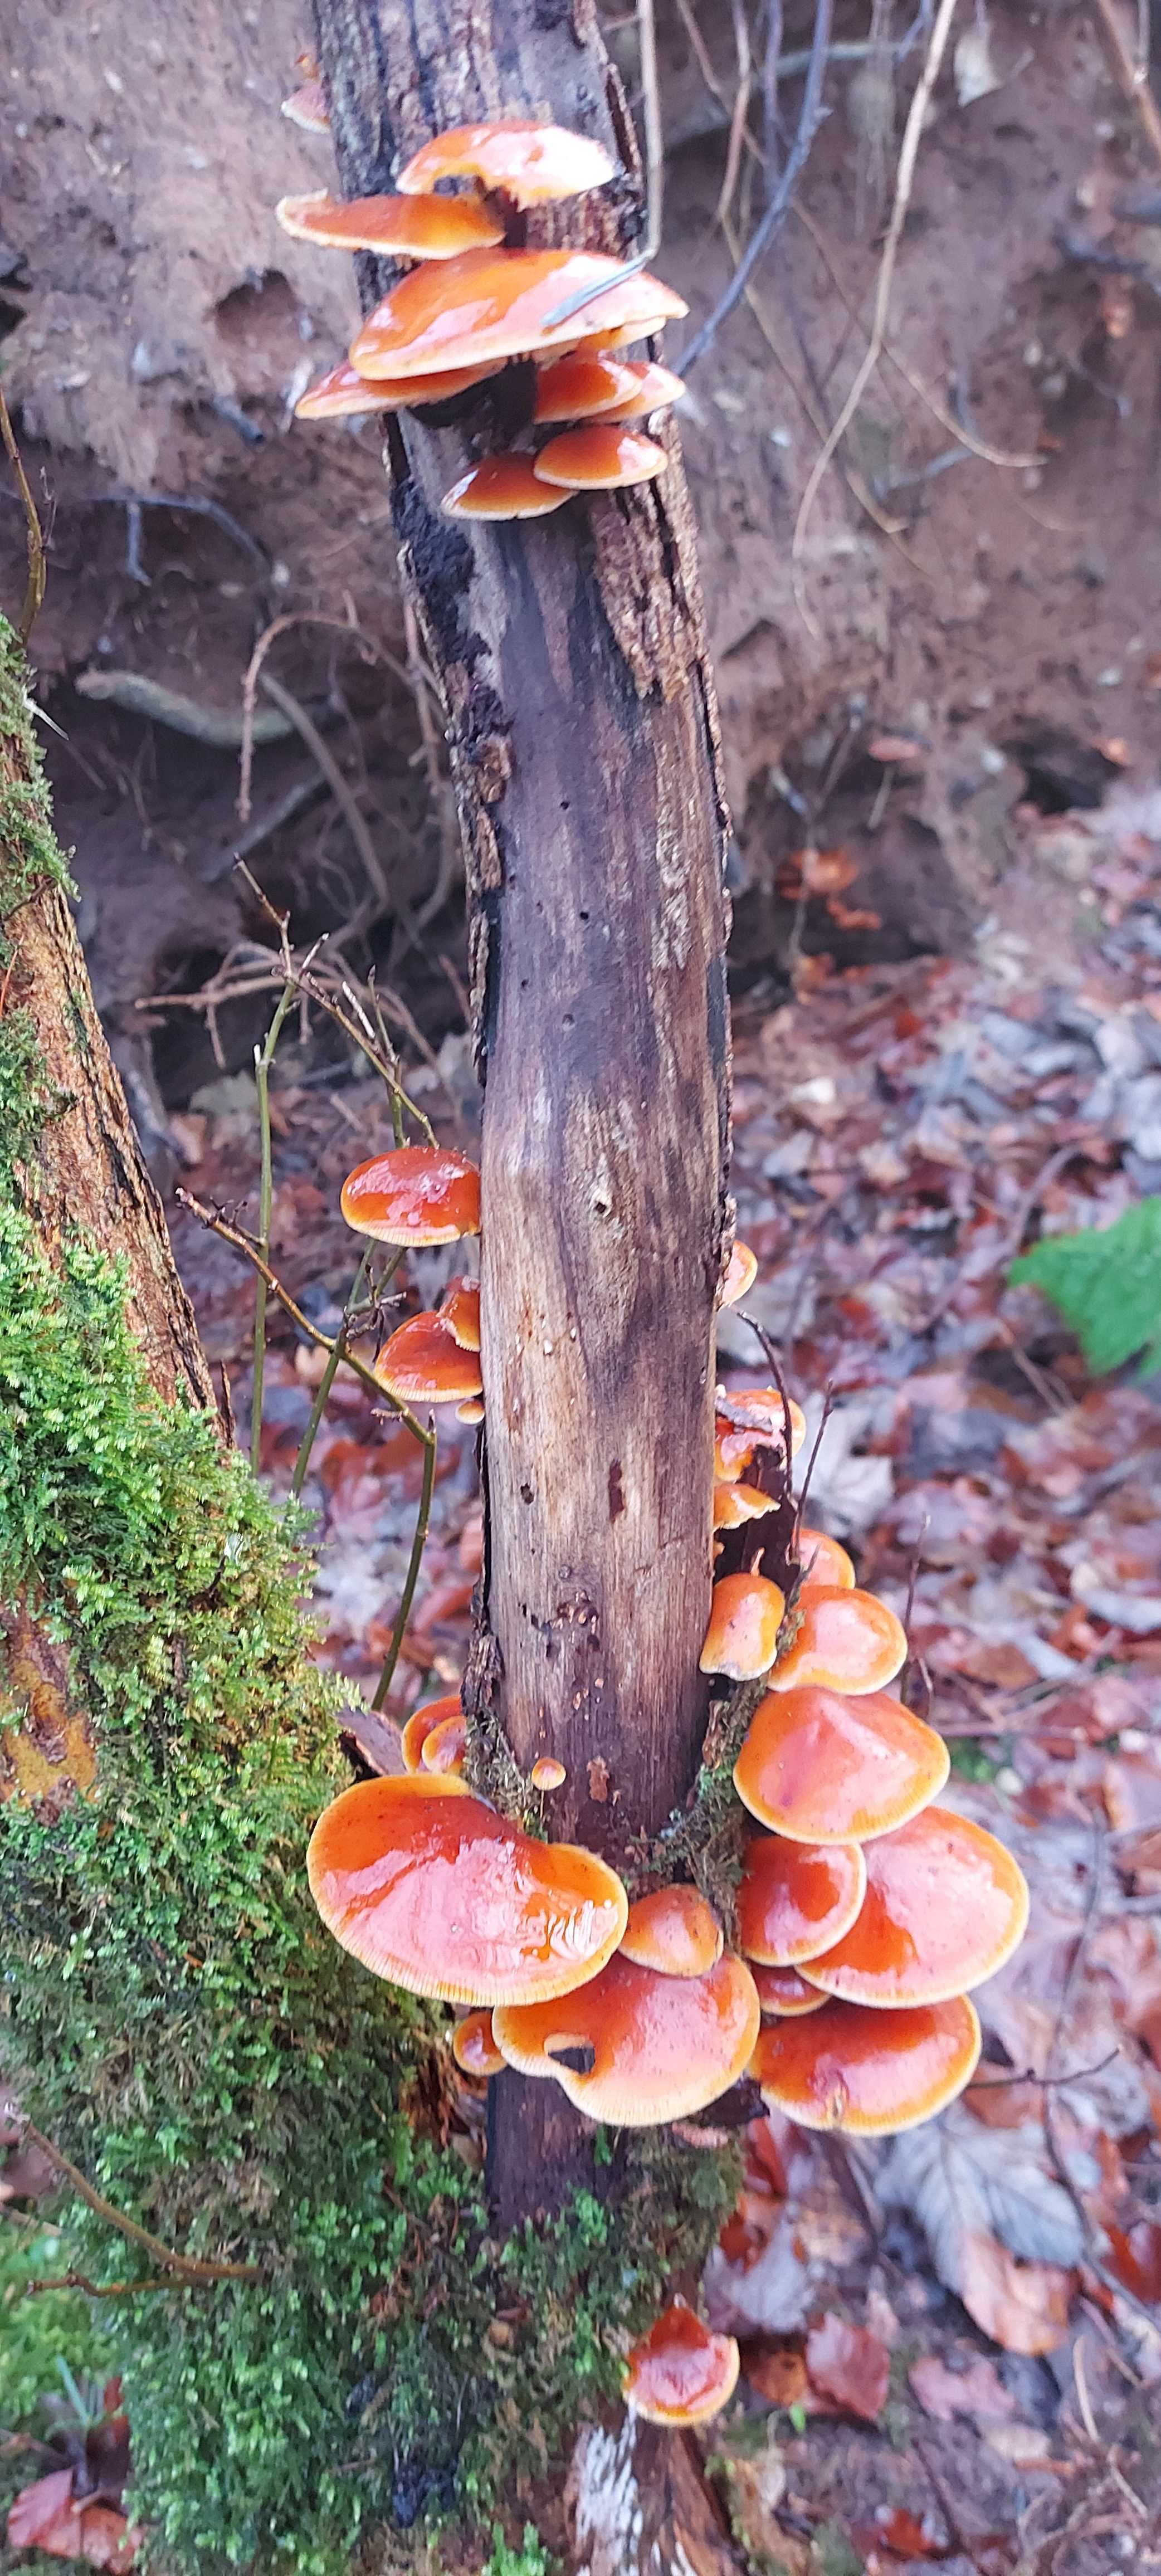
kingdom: Fungi
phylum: Basidiomycota
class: Agaricomycetes
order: Agaricales
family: Physalacriaceae
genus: Flammulina
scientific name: Flammulina velutipes
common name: gul fløjlsfod
